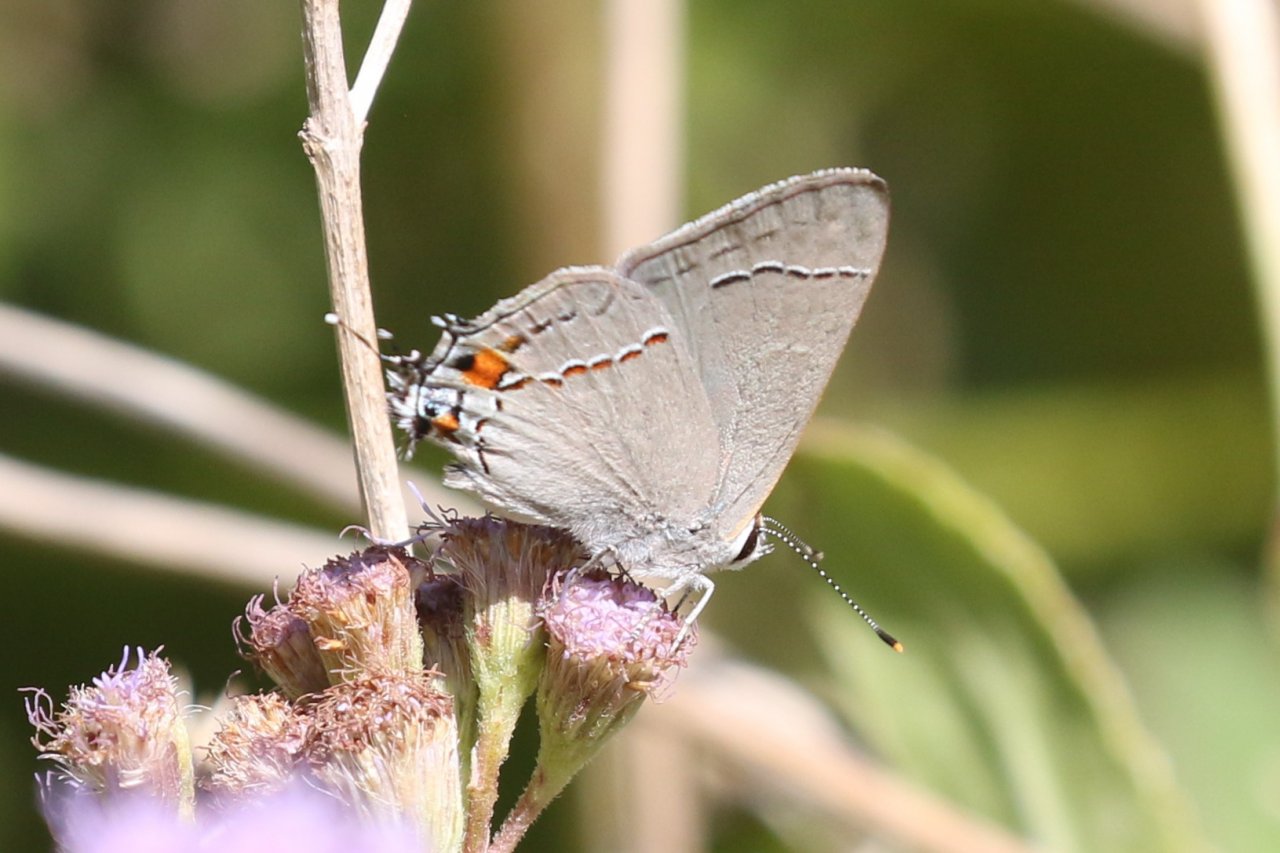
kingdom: Animalia
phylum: Arthropoda
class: Insecta
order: Lepidoptera
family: Lycaenidae
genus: Strymon
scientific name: Strymon melinus
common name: Gray Hairstreak
